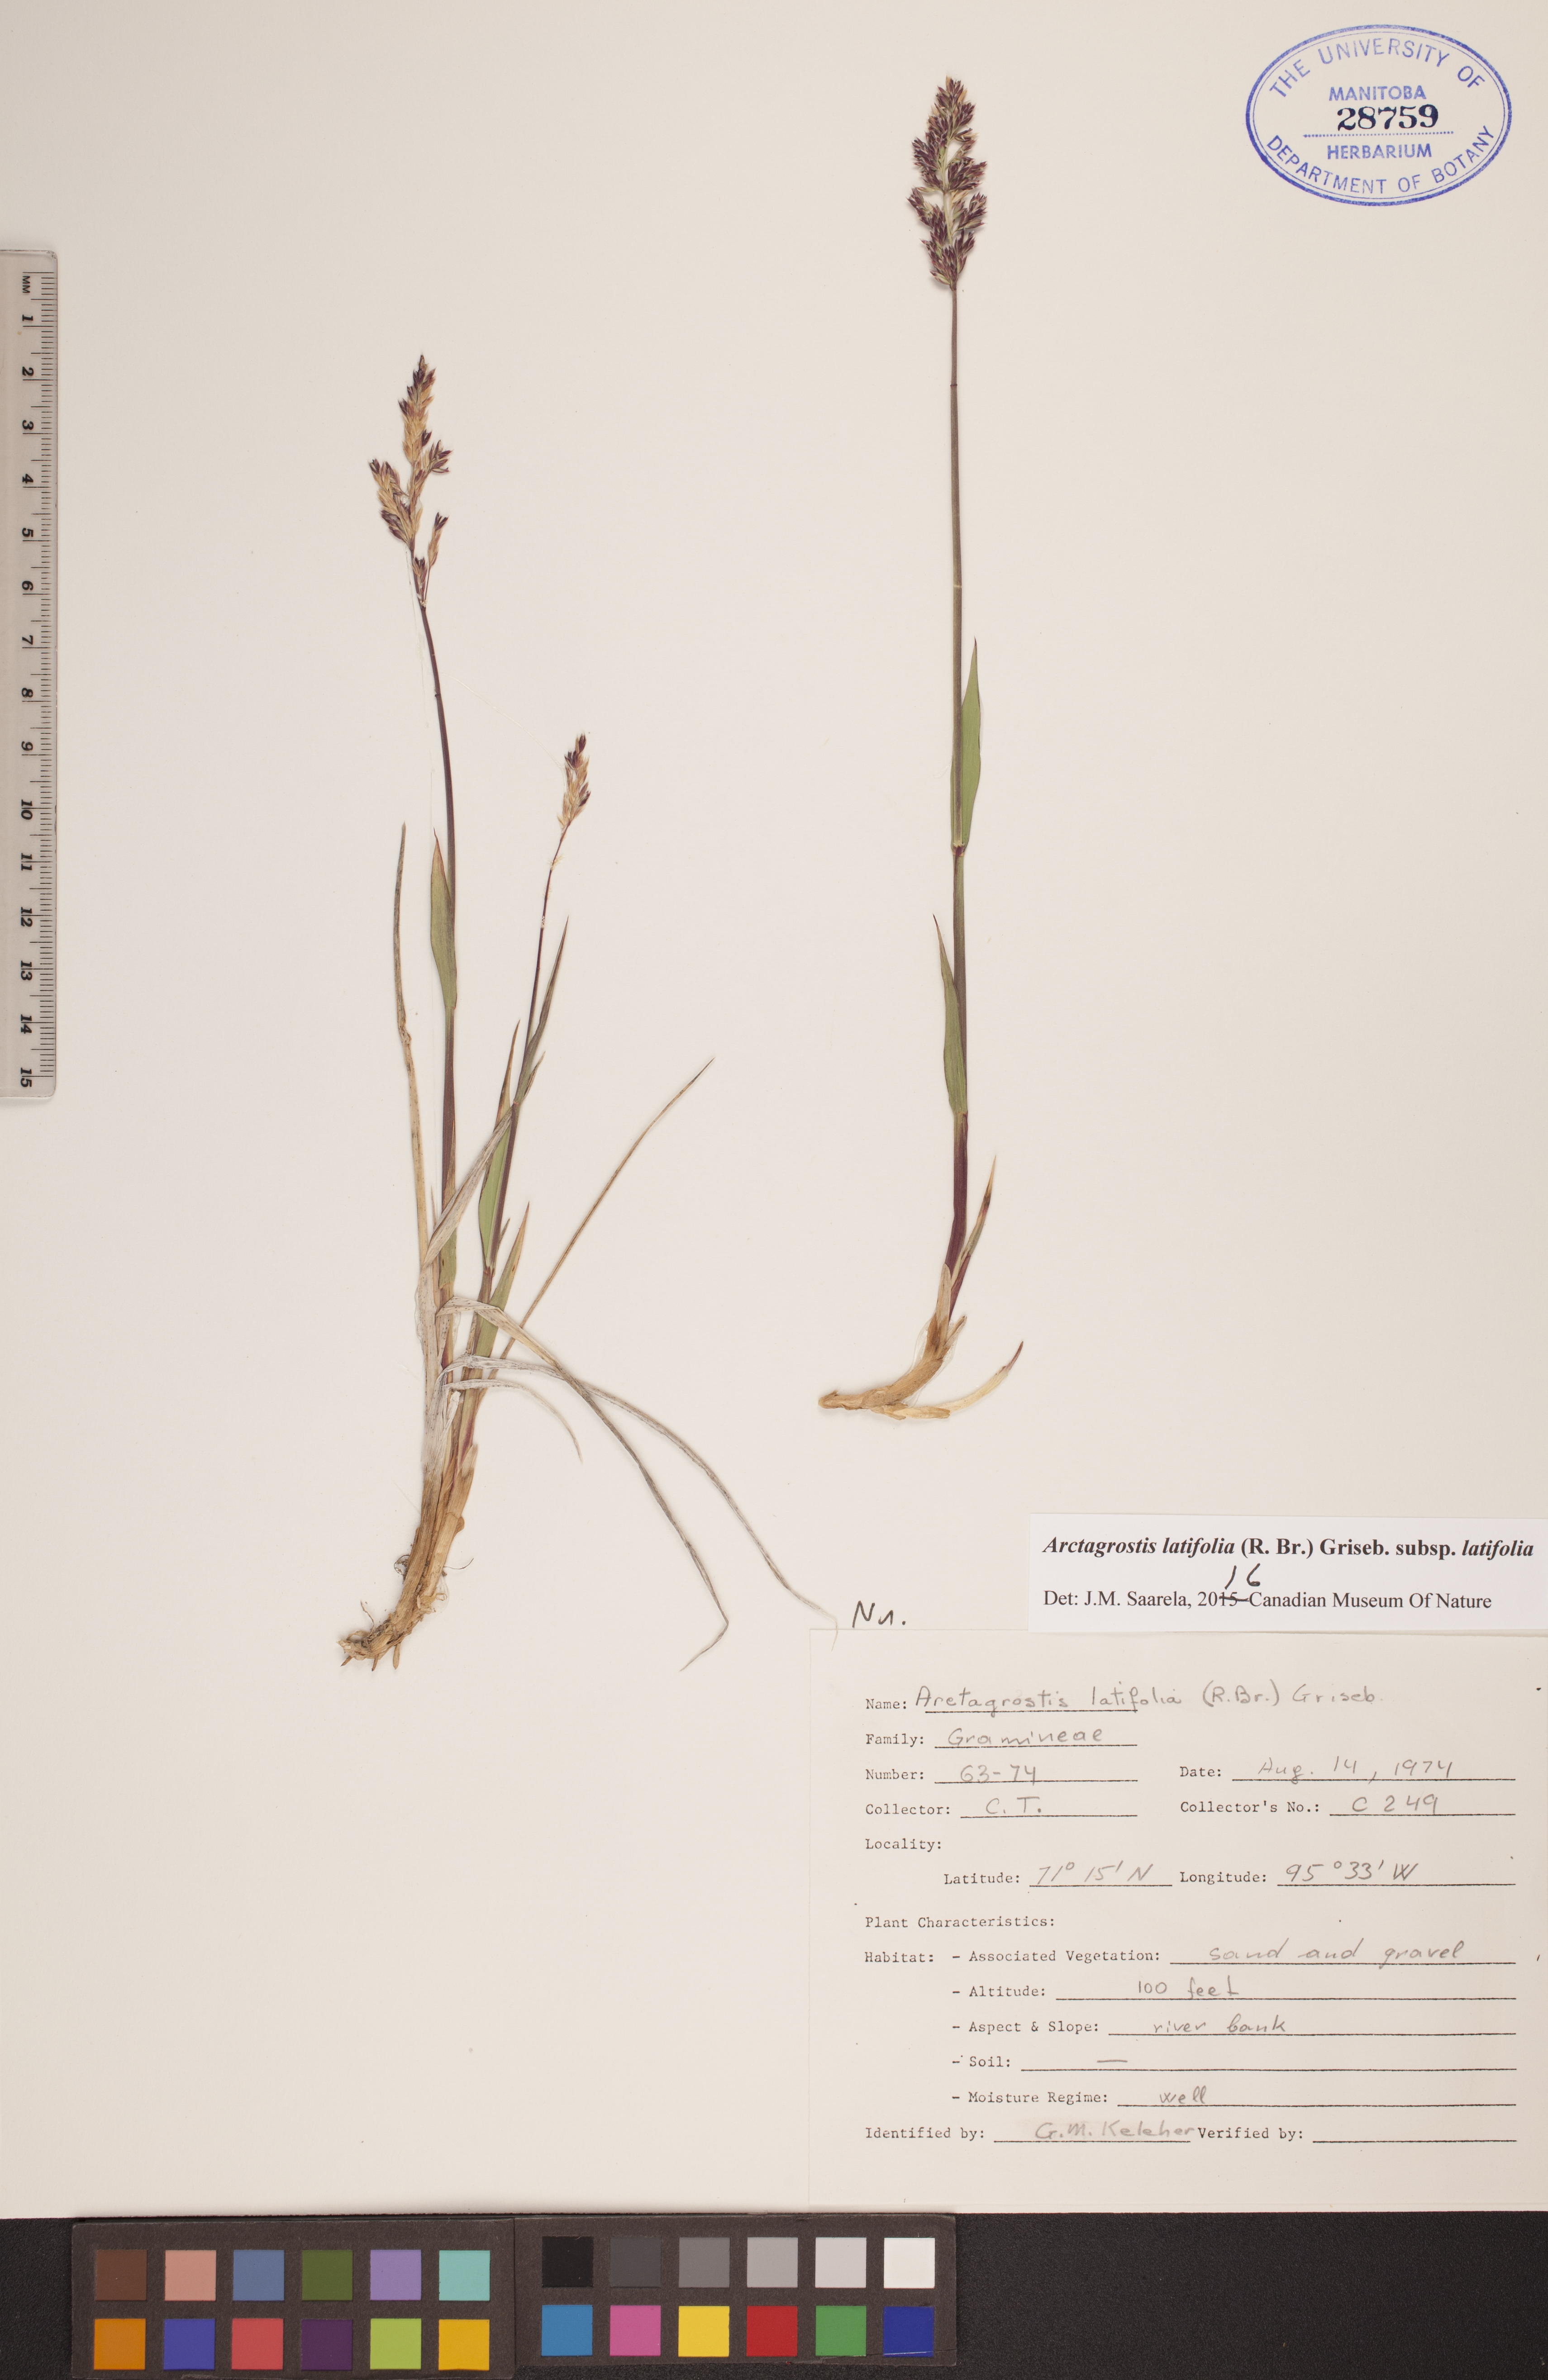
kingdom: Plantae
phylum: Tracheophyta
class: Liliopsida
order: Poales
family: Poaceae
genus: Arctagrostis
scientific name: Arctagrostis latifolia
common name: Arctic grass
